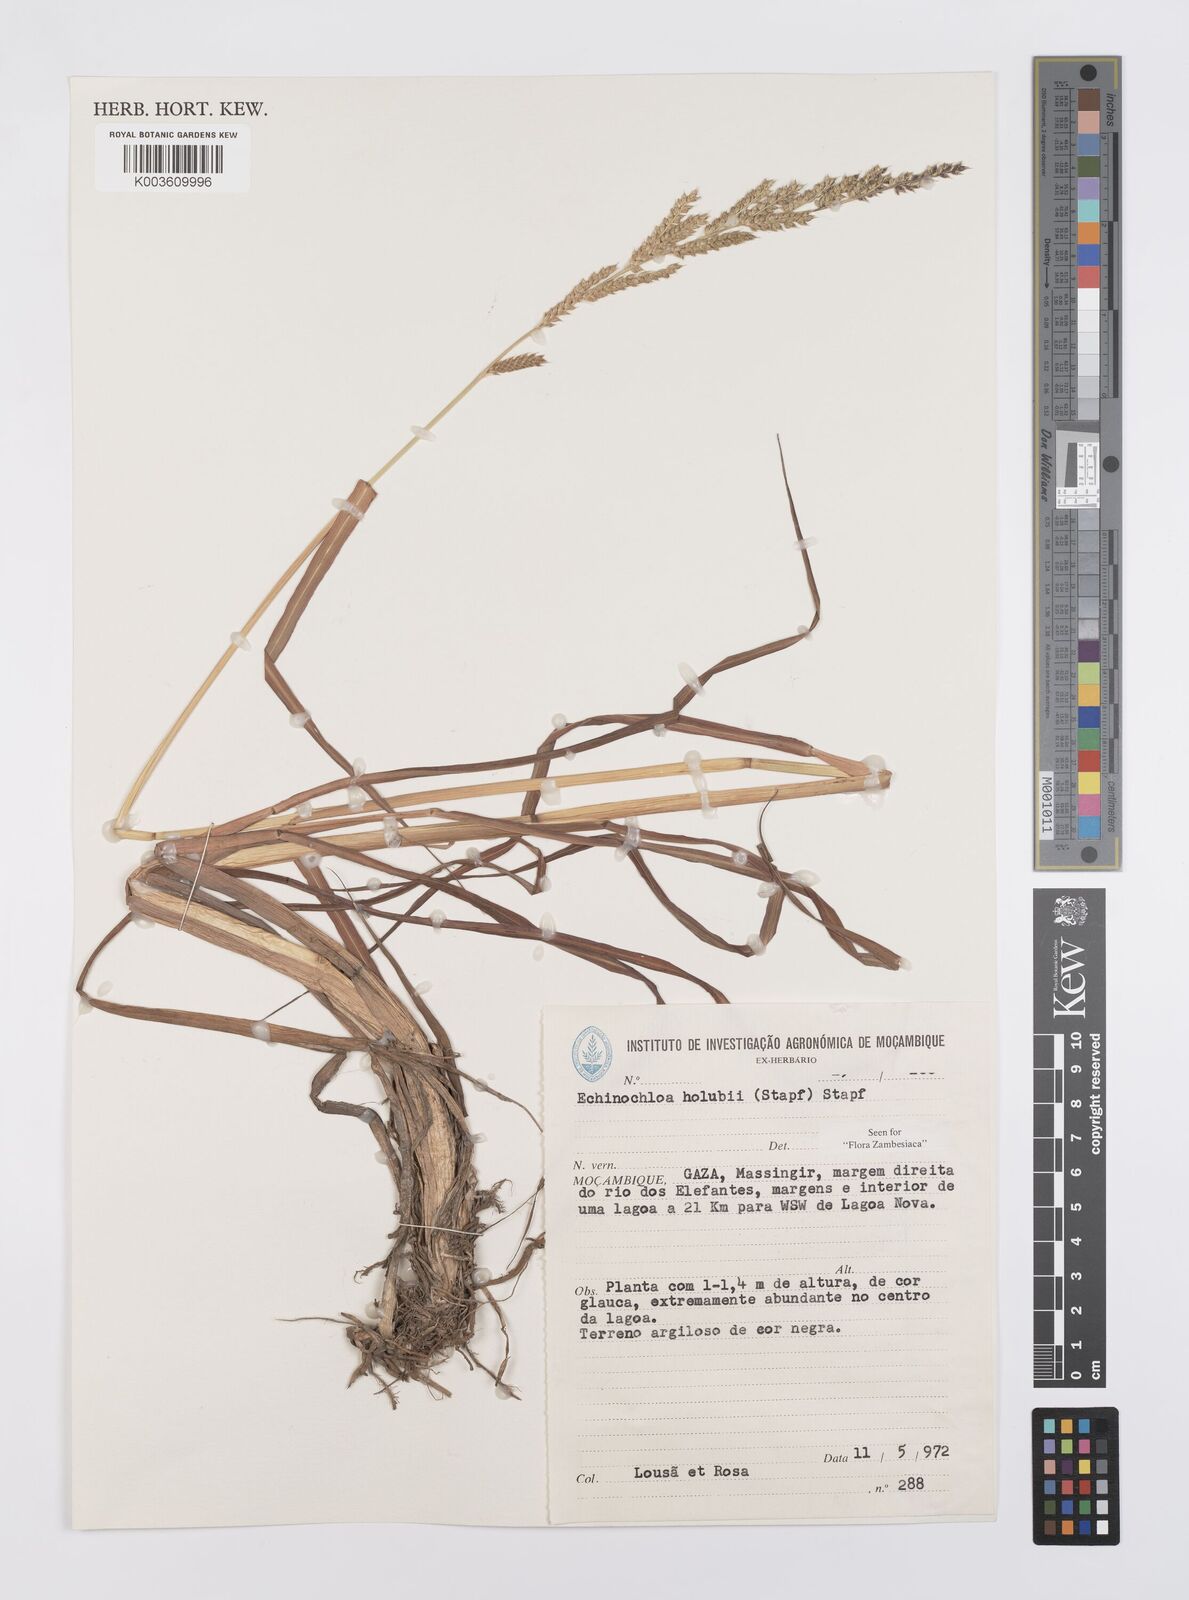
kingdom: Plantae
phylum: Tracheophyta
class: Liliopsida
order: Poales
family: Poaceae
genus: Echinochloa
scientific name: Echinochloa pyramidalis
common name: Antelope grass
